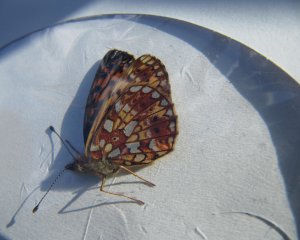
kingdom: Animalia
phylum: Arthropoda
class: Insecta
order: Lepidoptera
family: Nymphalidae
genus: Boloria
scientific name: Boloria selene
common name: Silver-bordered Fritillary
